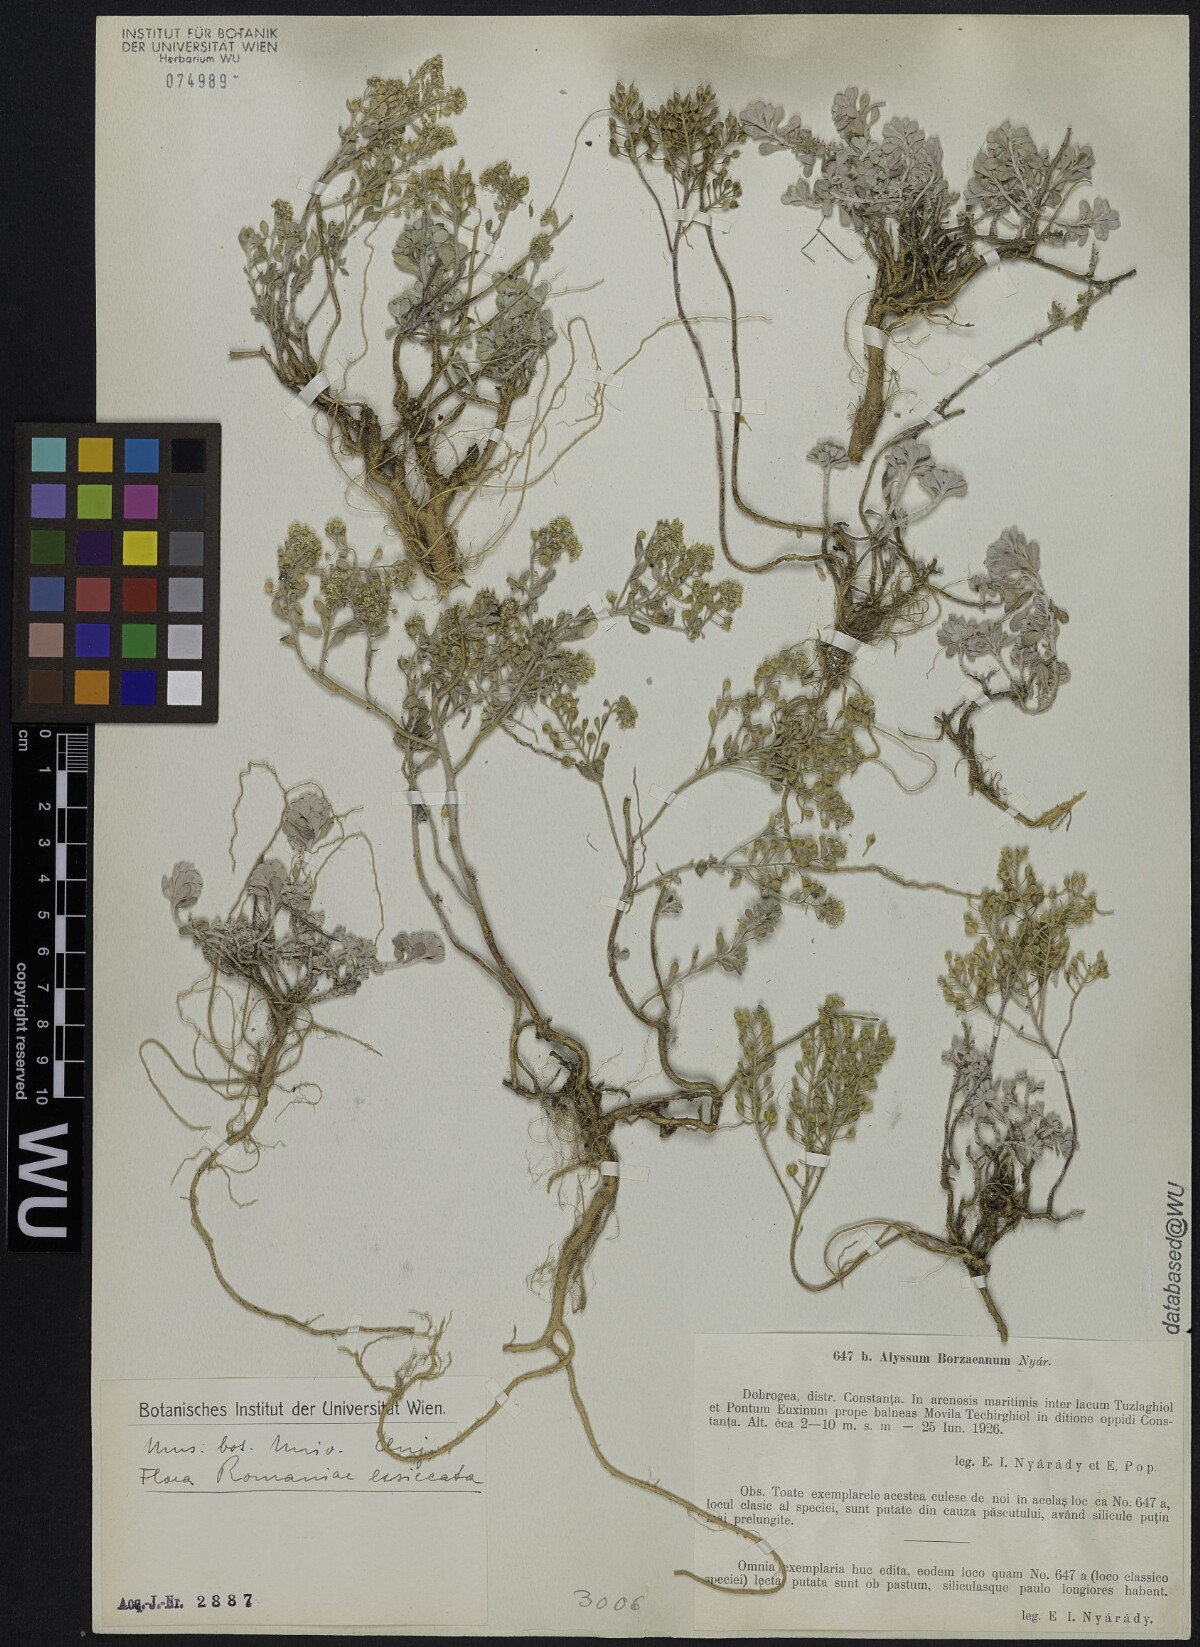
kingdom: Plantae
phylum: Tracheophyta
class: Magnoliopsida
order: Brassicales
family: Brassicaceae
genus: Odontarrhena
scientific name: Odontarrhena borzeana
